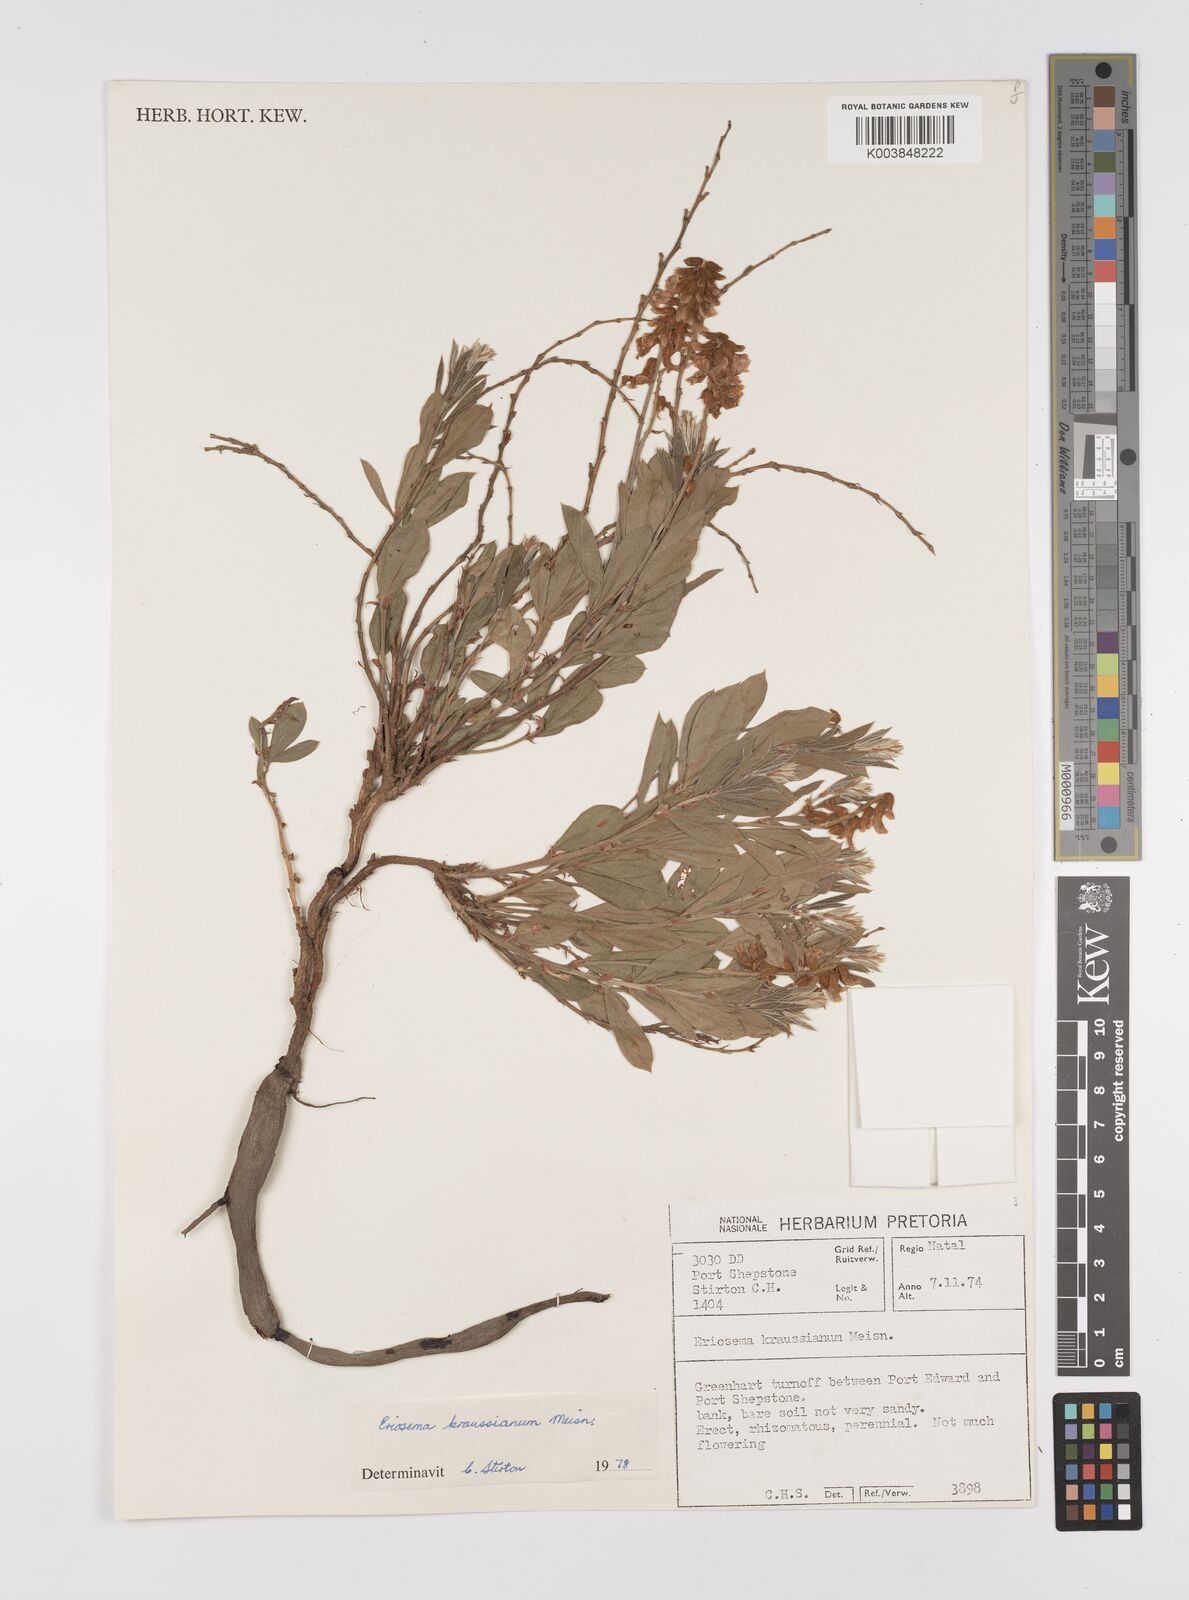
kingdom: Plantae
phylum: Tracheophyta
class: Magnoliopsida
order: Fabales
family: Fabaceae
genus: Eriosema
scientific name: Eriosema kraussianum
